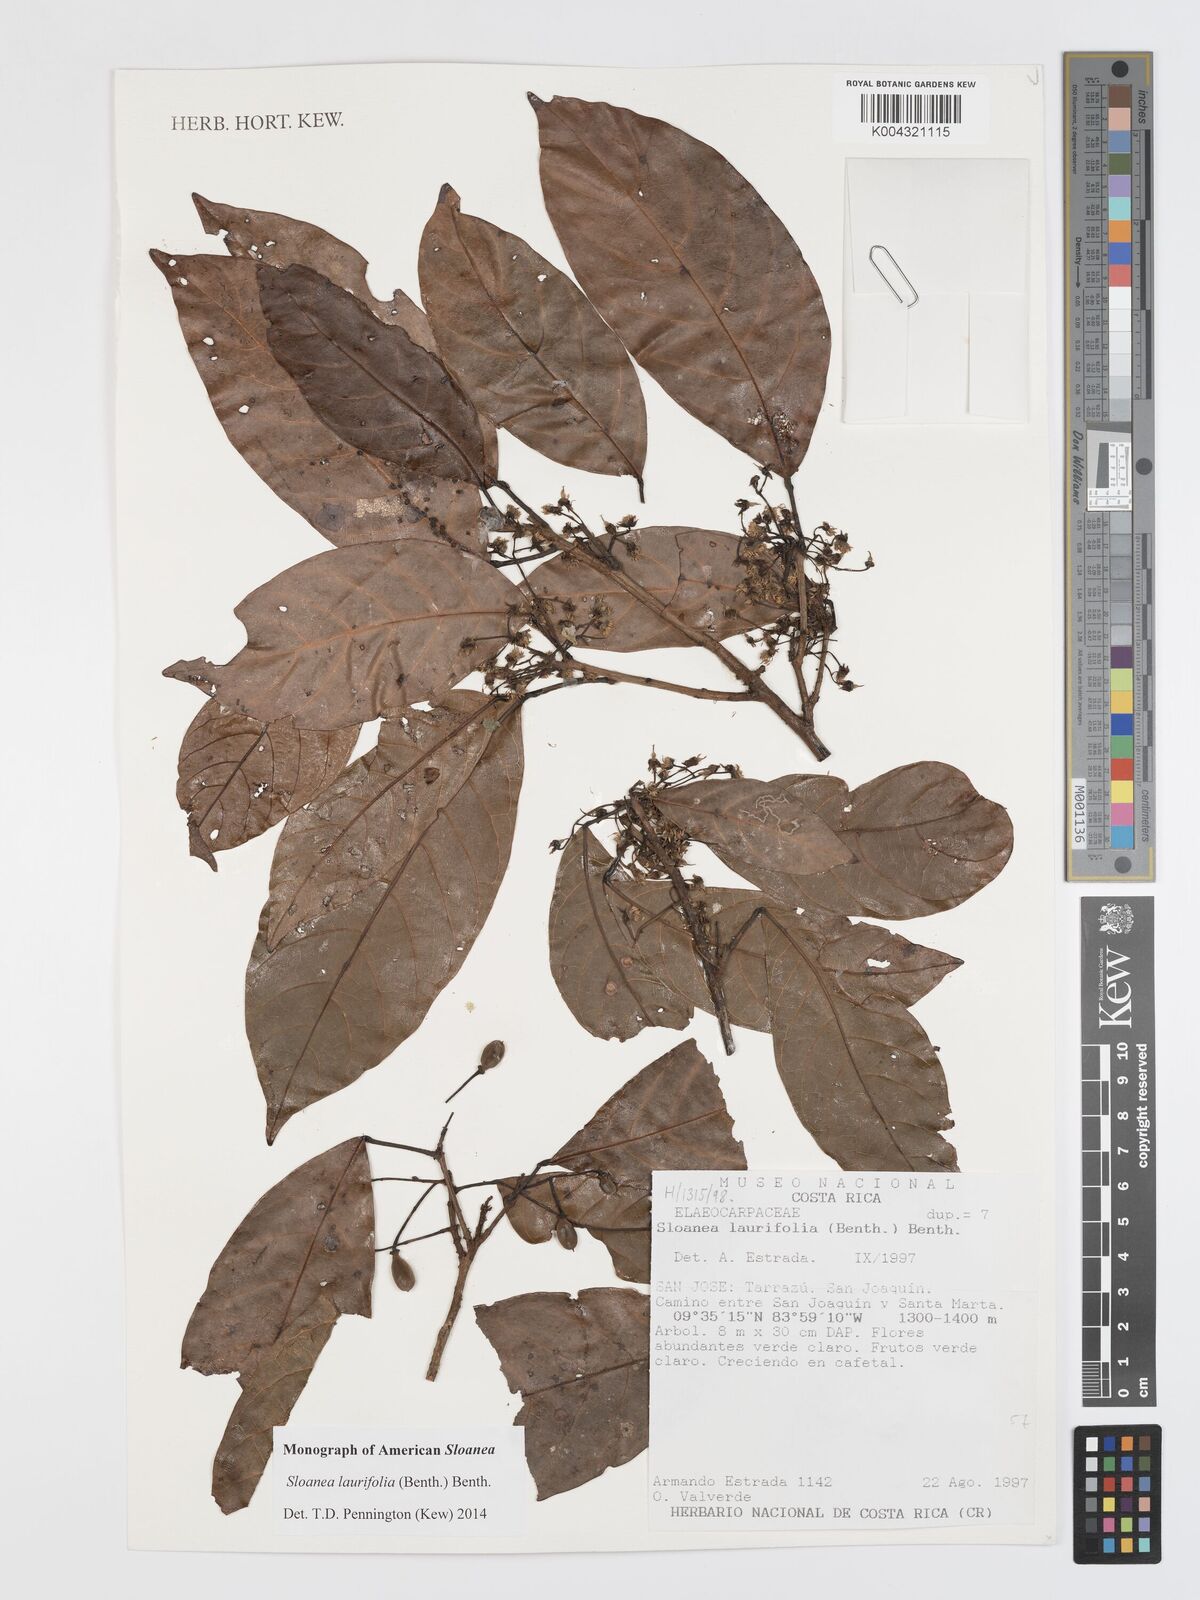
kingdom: Plantae
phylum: Tracheophyta
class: Magnoliopsida
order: Oxalidales
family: Elaeocarpaceae
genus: Sloanea
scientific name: Sloanea
